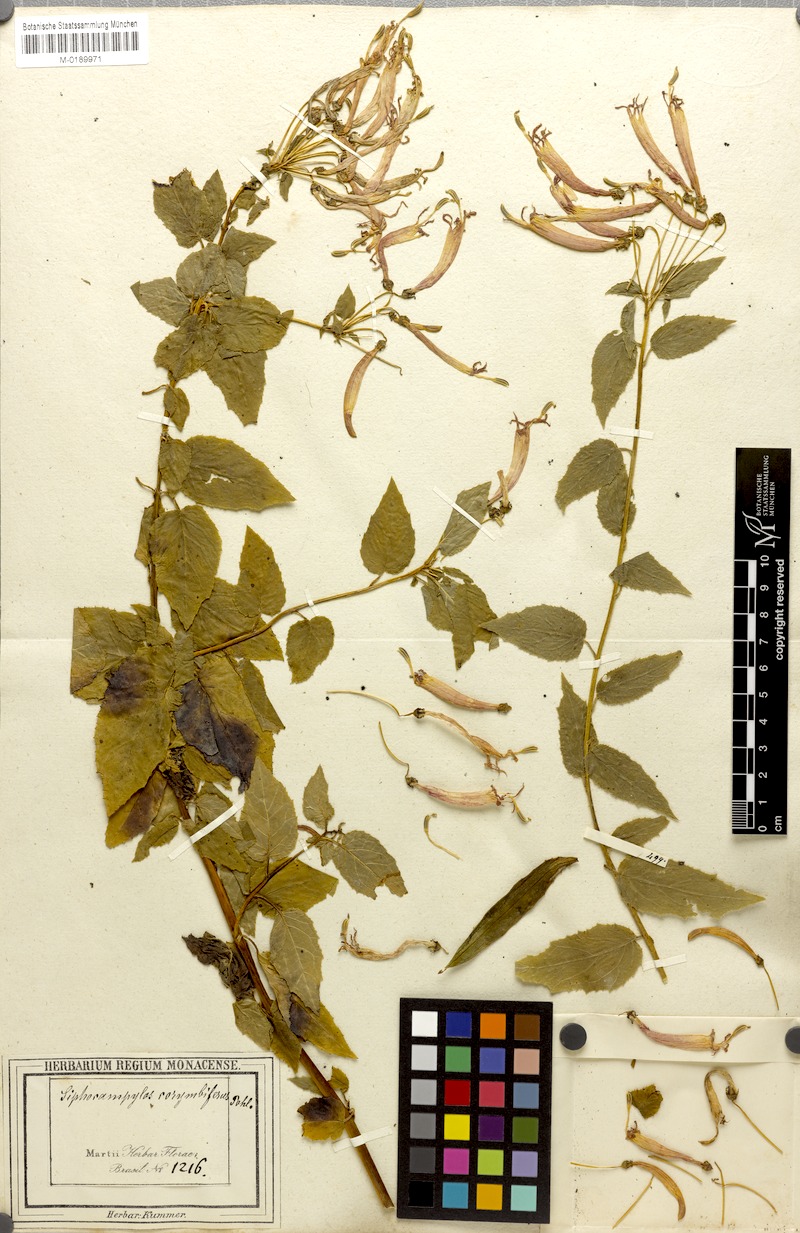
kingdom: Plantae
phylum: Tracheophyta
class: Magnoliopsida
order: Asterales
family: Campanulaceae
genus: Siphocampylus
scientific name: Siphocampylus corymbifer
